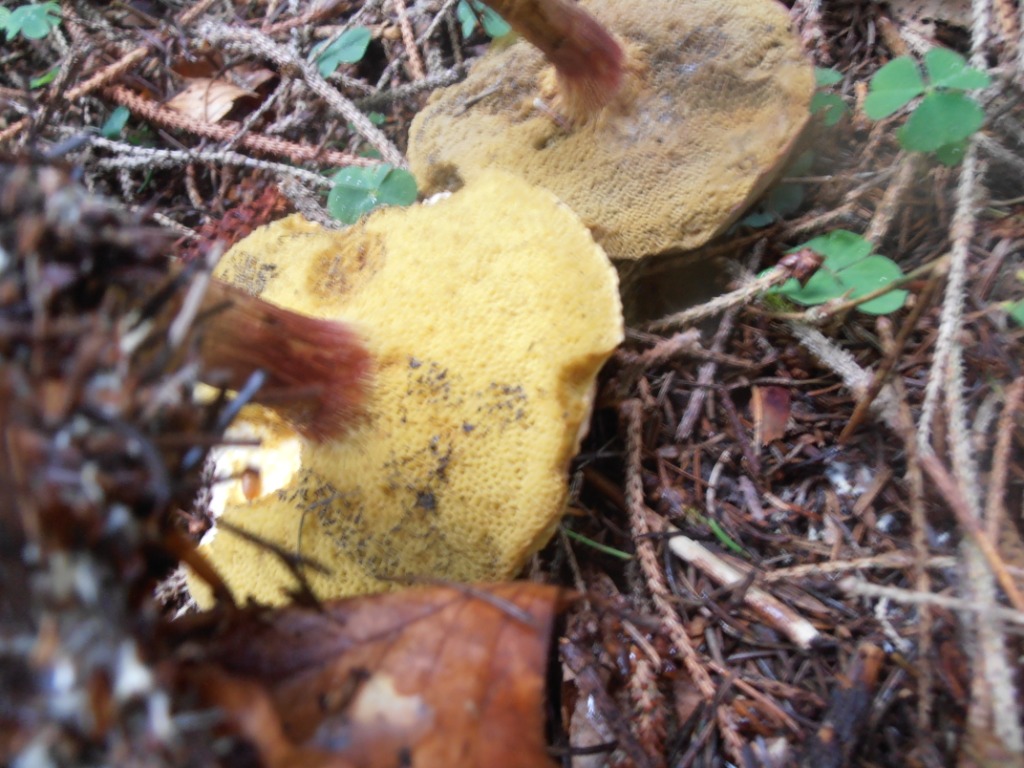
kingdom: Fungi
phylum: Basidiomycota
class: Agaricomycetes
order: Boletales
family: Boletaceae
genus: Xerocomellus
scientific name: Xerocomellus pruinatus
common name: dugget rørhat
